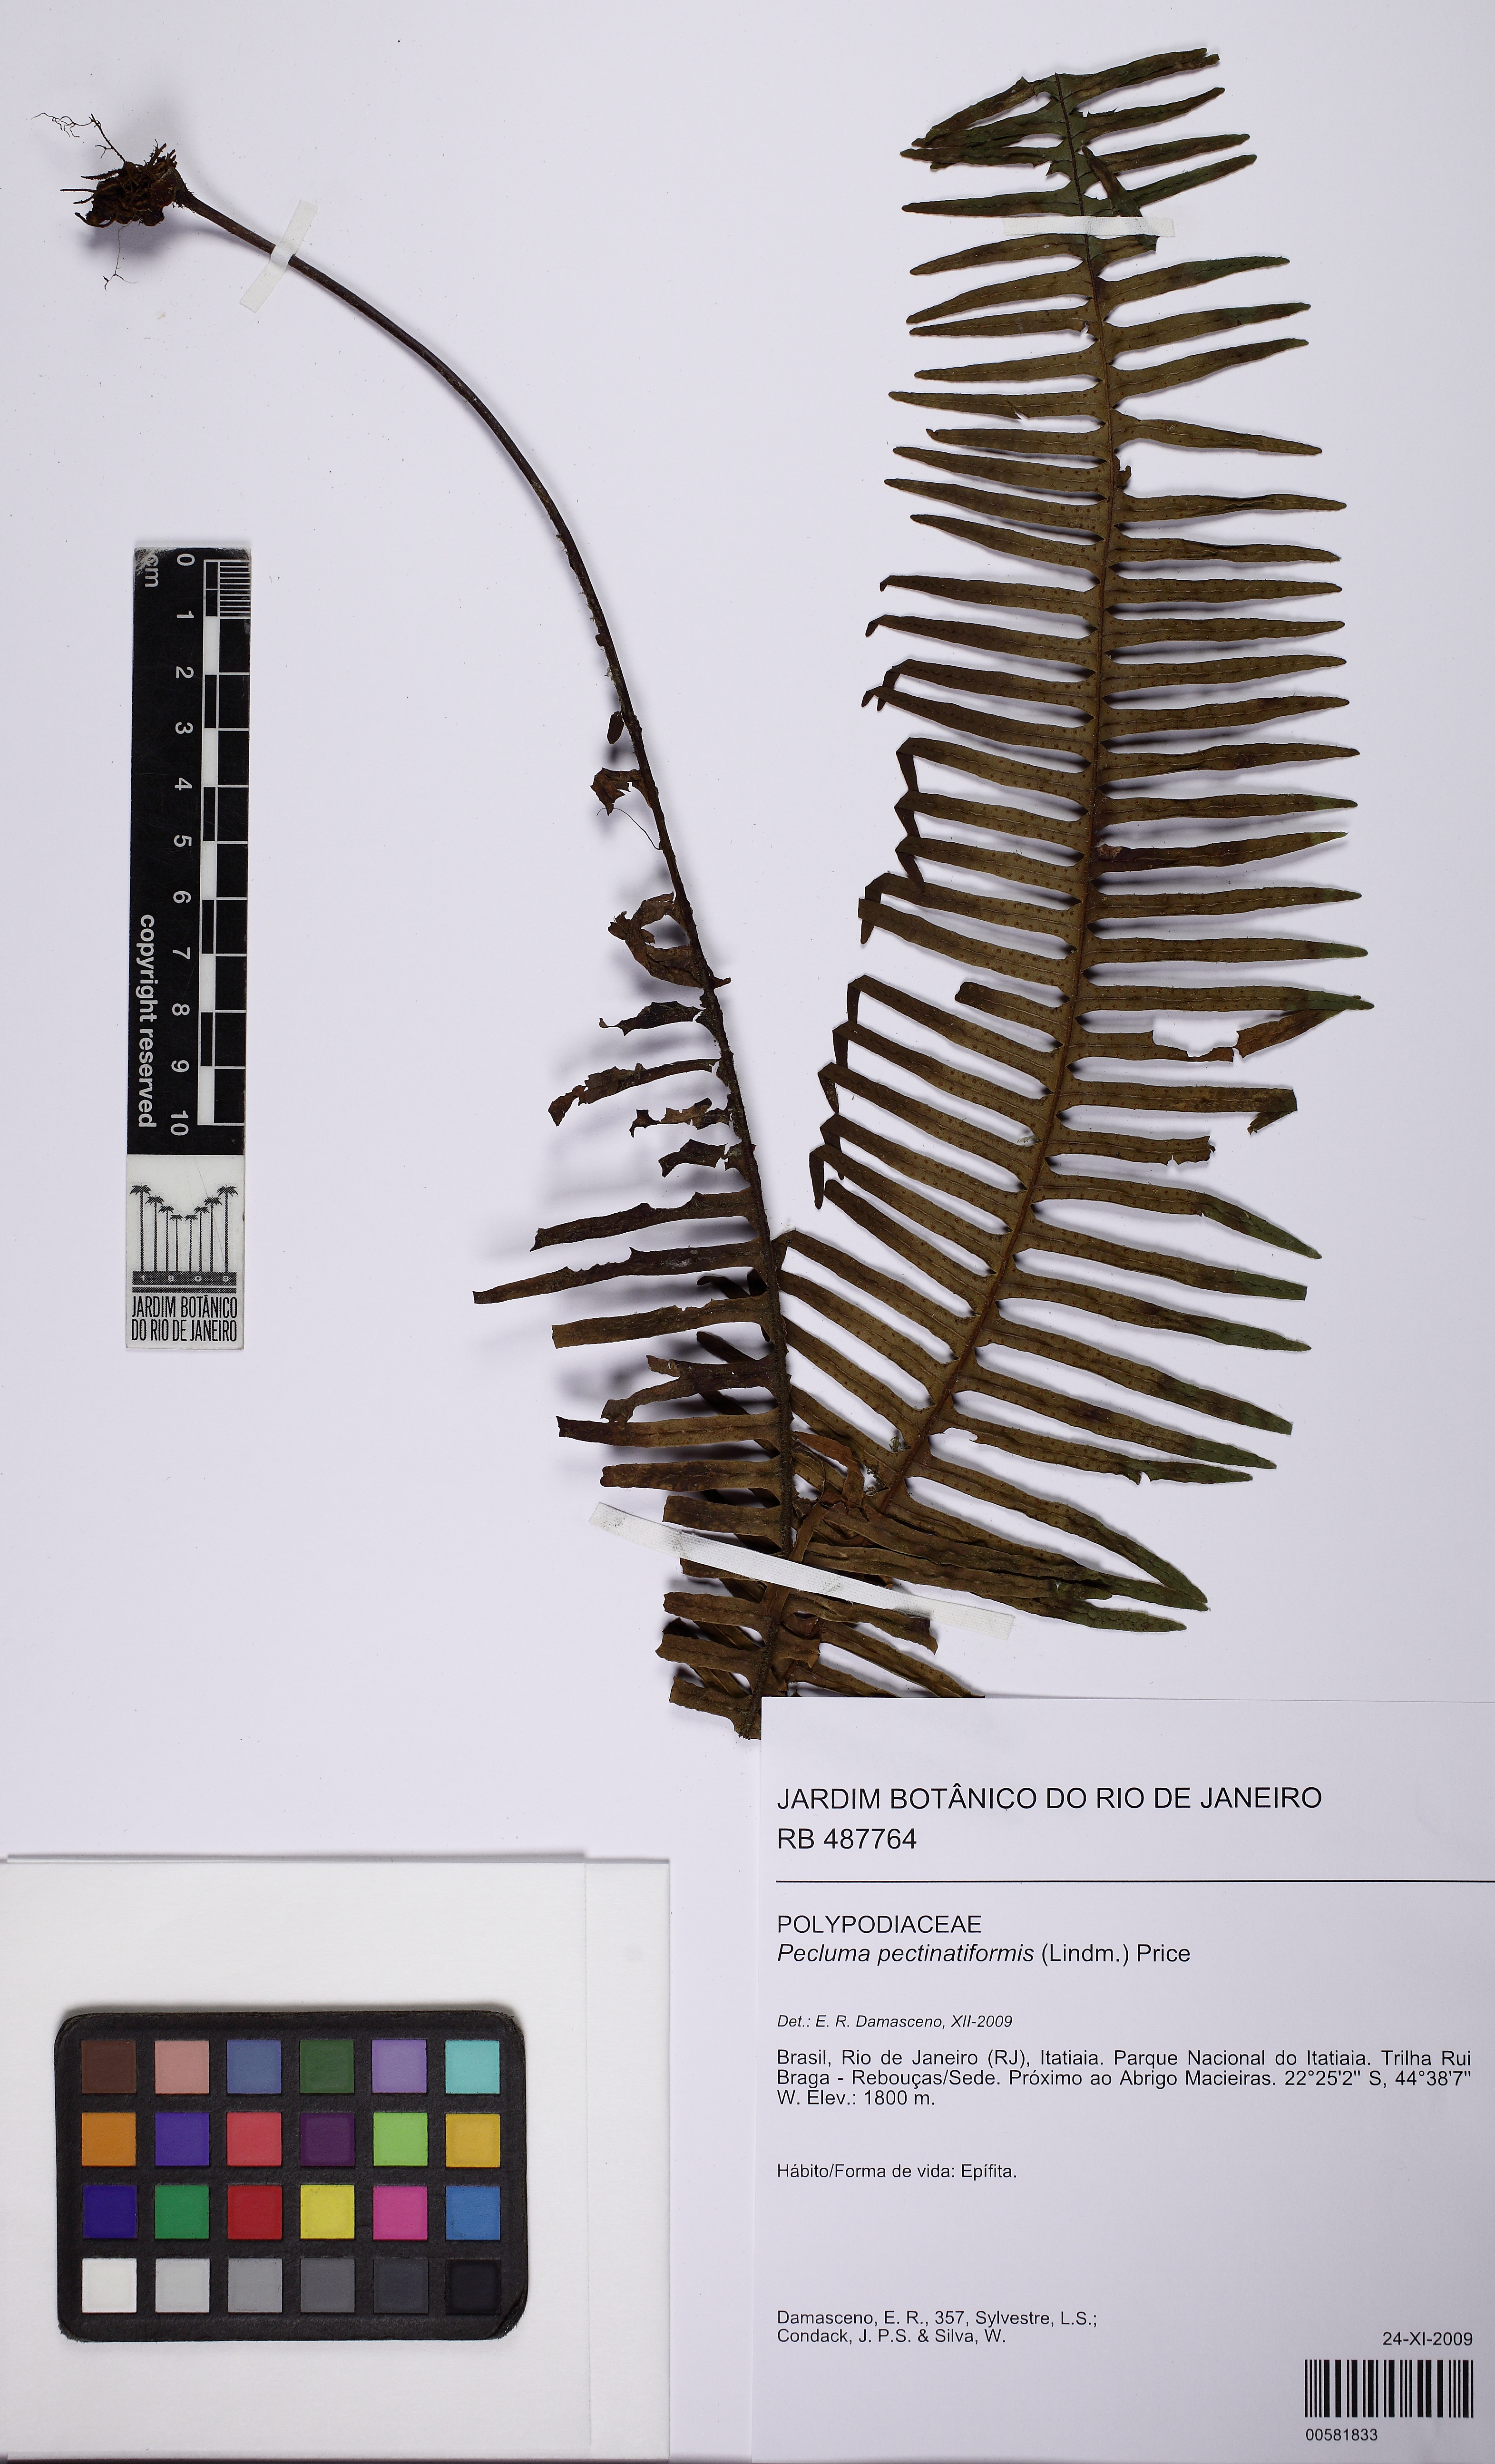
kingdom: Plantae
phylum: Tracheophyta
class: Polypodiopsida
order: Polypodiales
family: Polypodiaceae
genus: Pecluma
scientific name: Pecluma pectinatiformis
